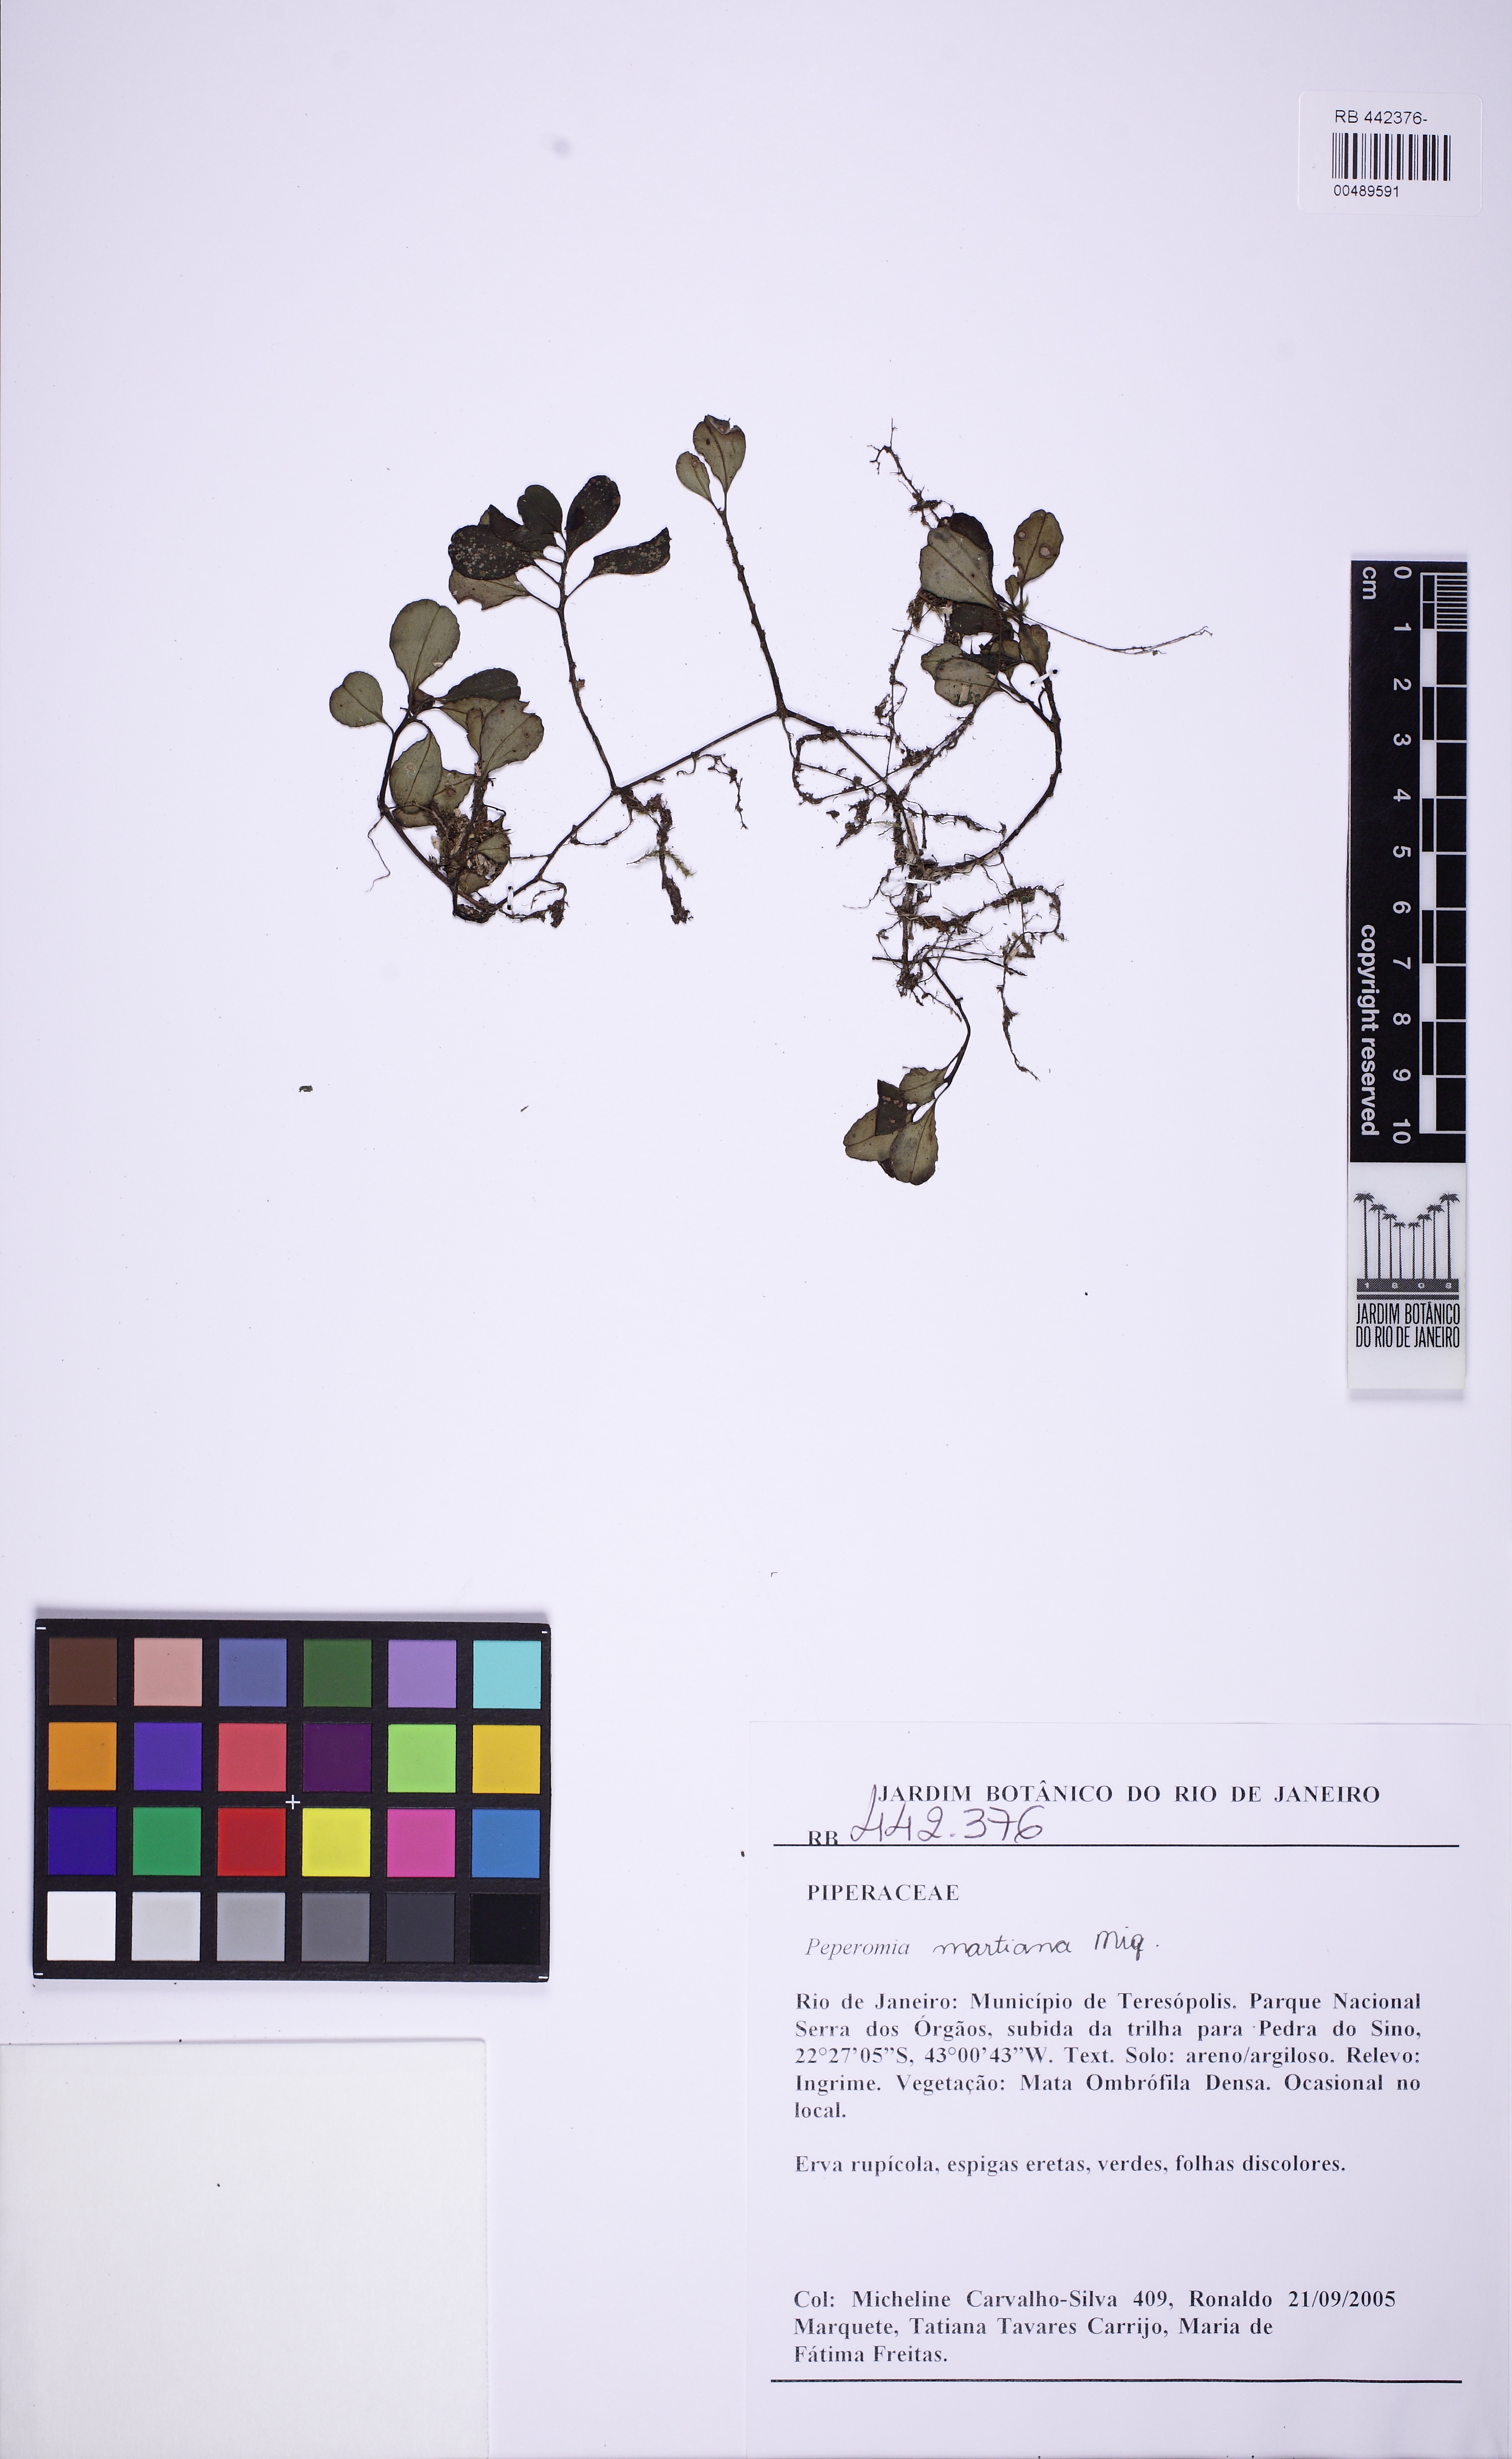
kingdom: Plantae
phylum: Tracheophyta
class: Magnoliopsida
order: Piperales
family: Piperaceae
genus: Peperomia
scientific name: Peperomia martiana
